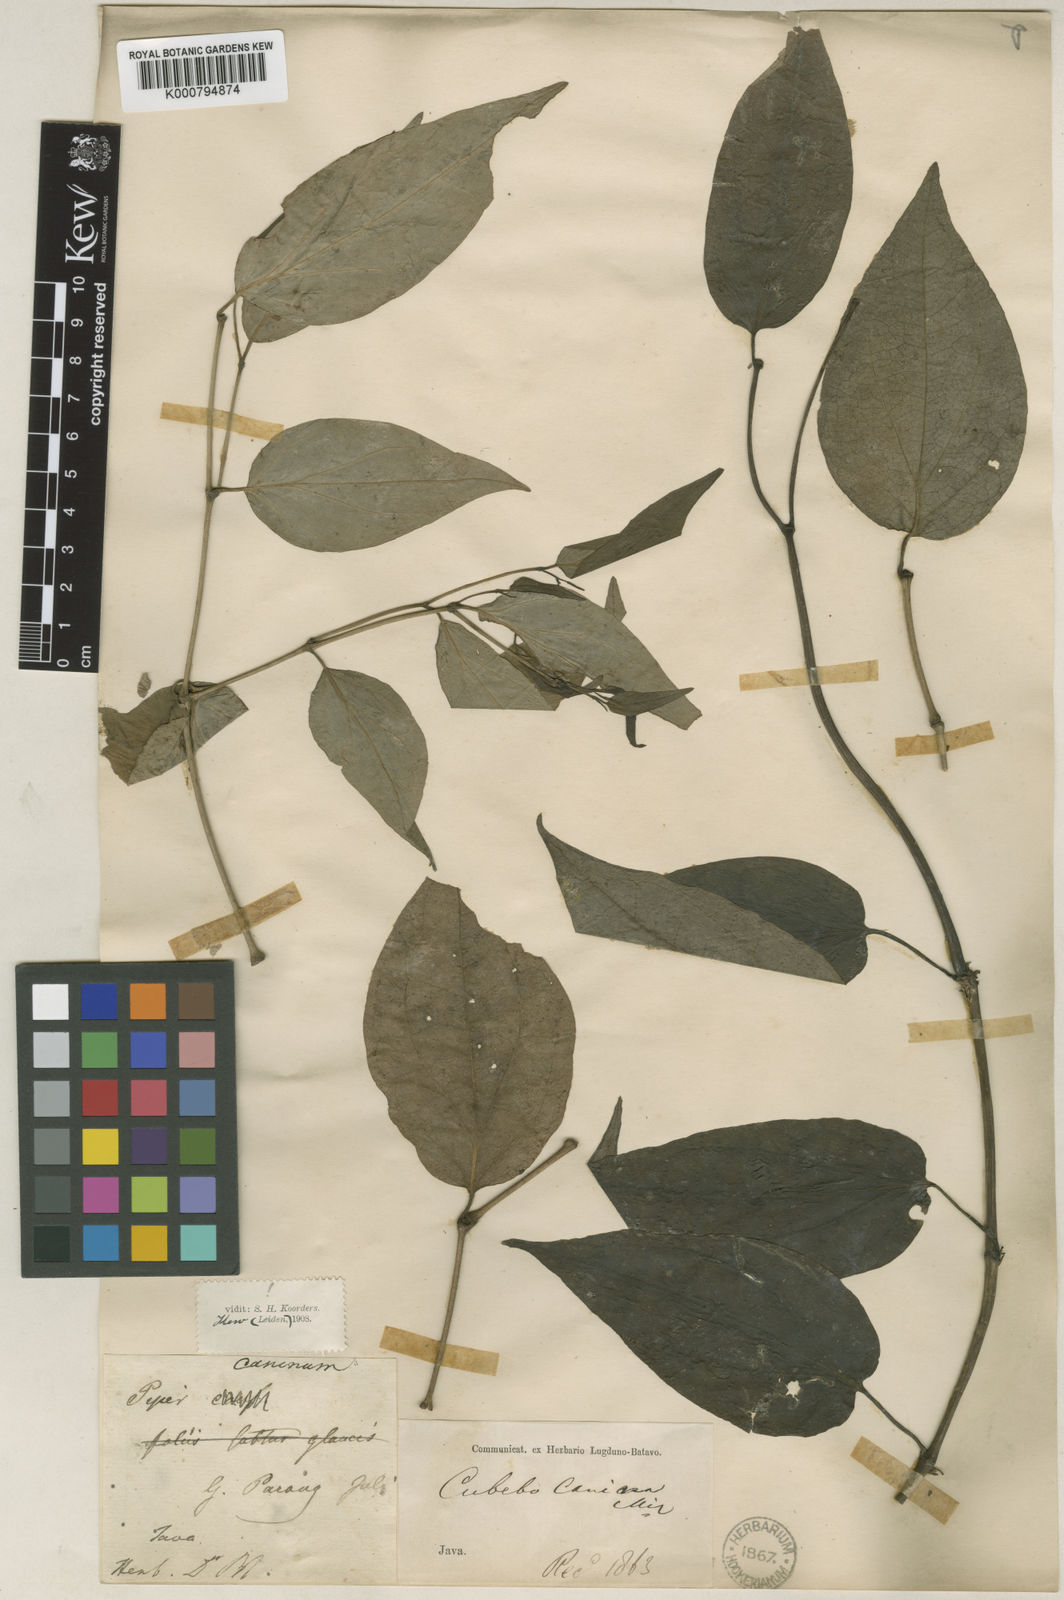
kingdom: Plantae
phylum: Tracheophyta
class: Magnoliopsida
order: Piperales
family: Piperaceae
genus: Piper
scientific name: Piper lanatum
